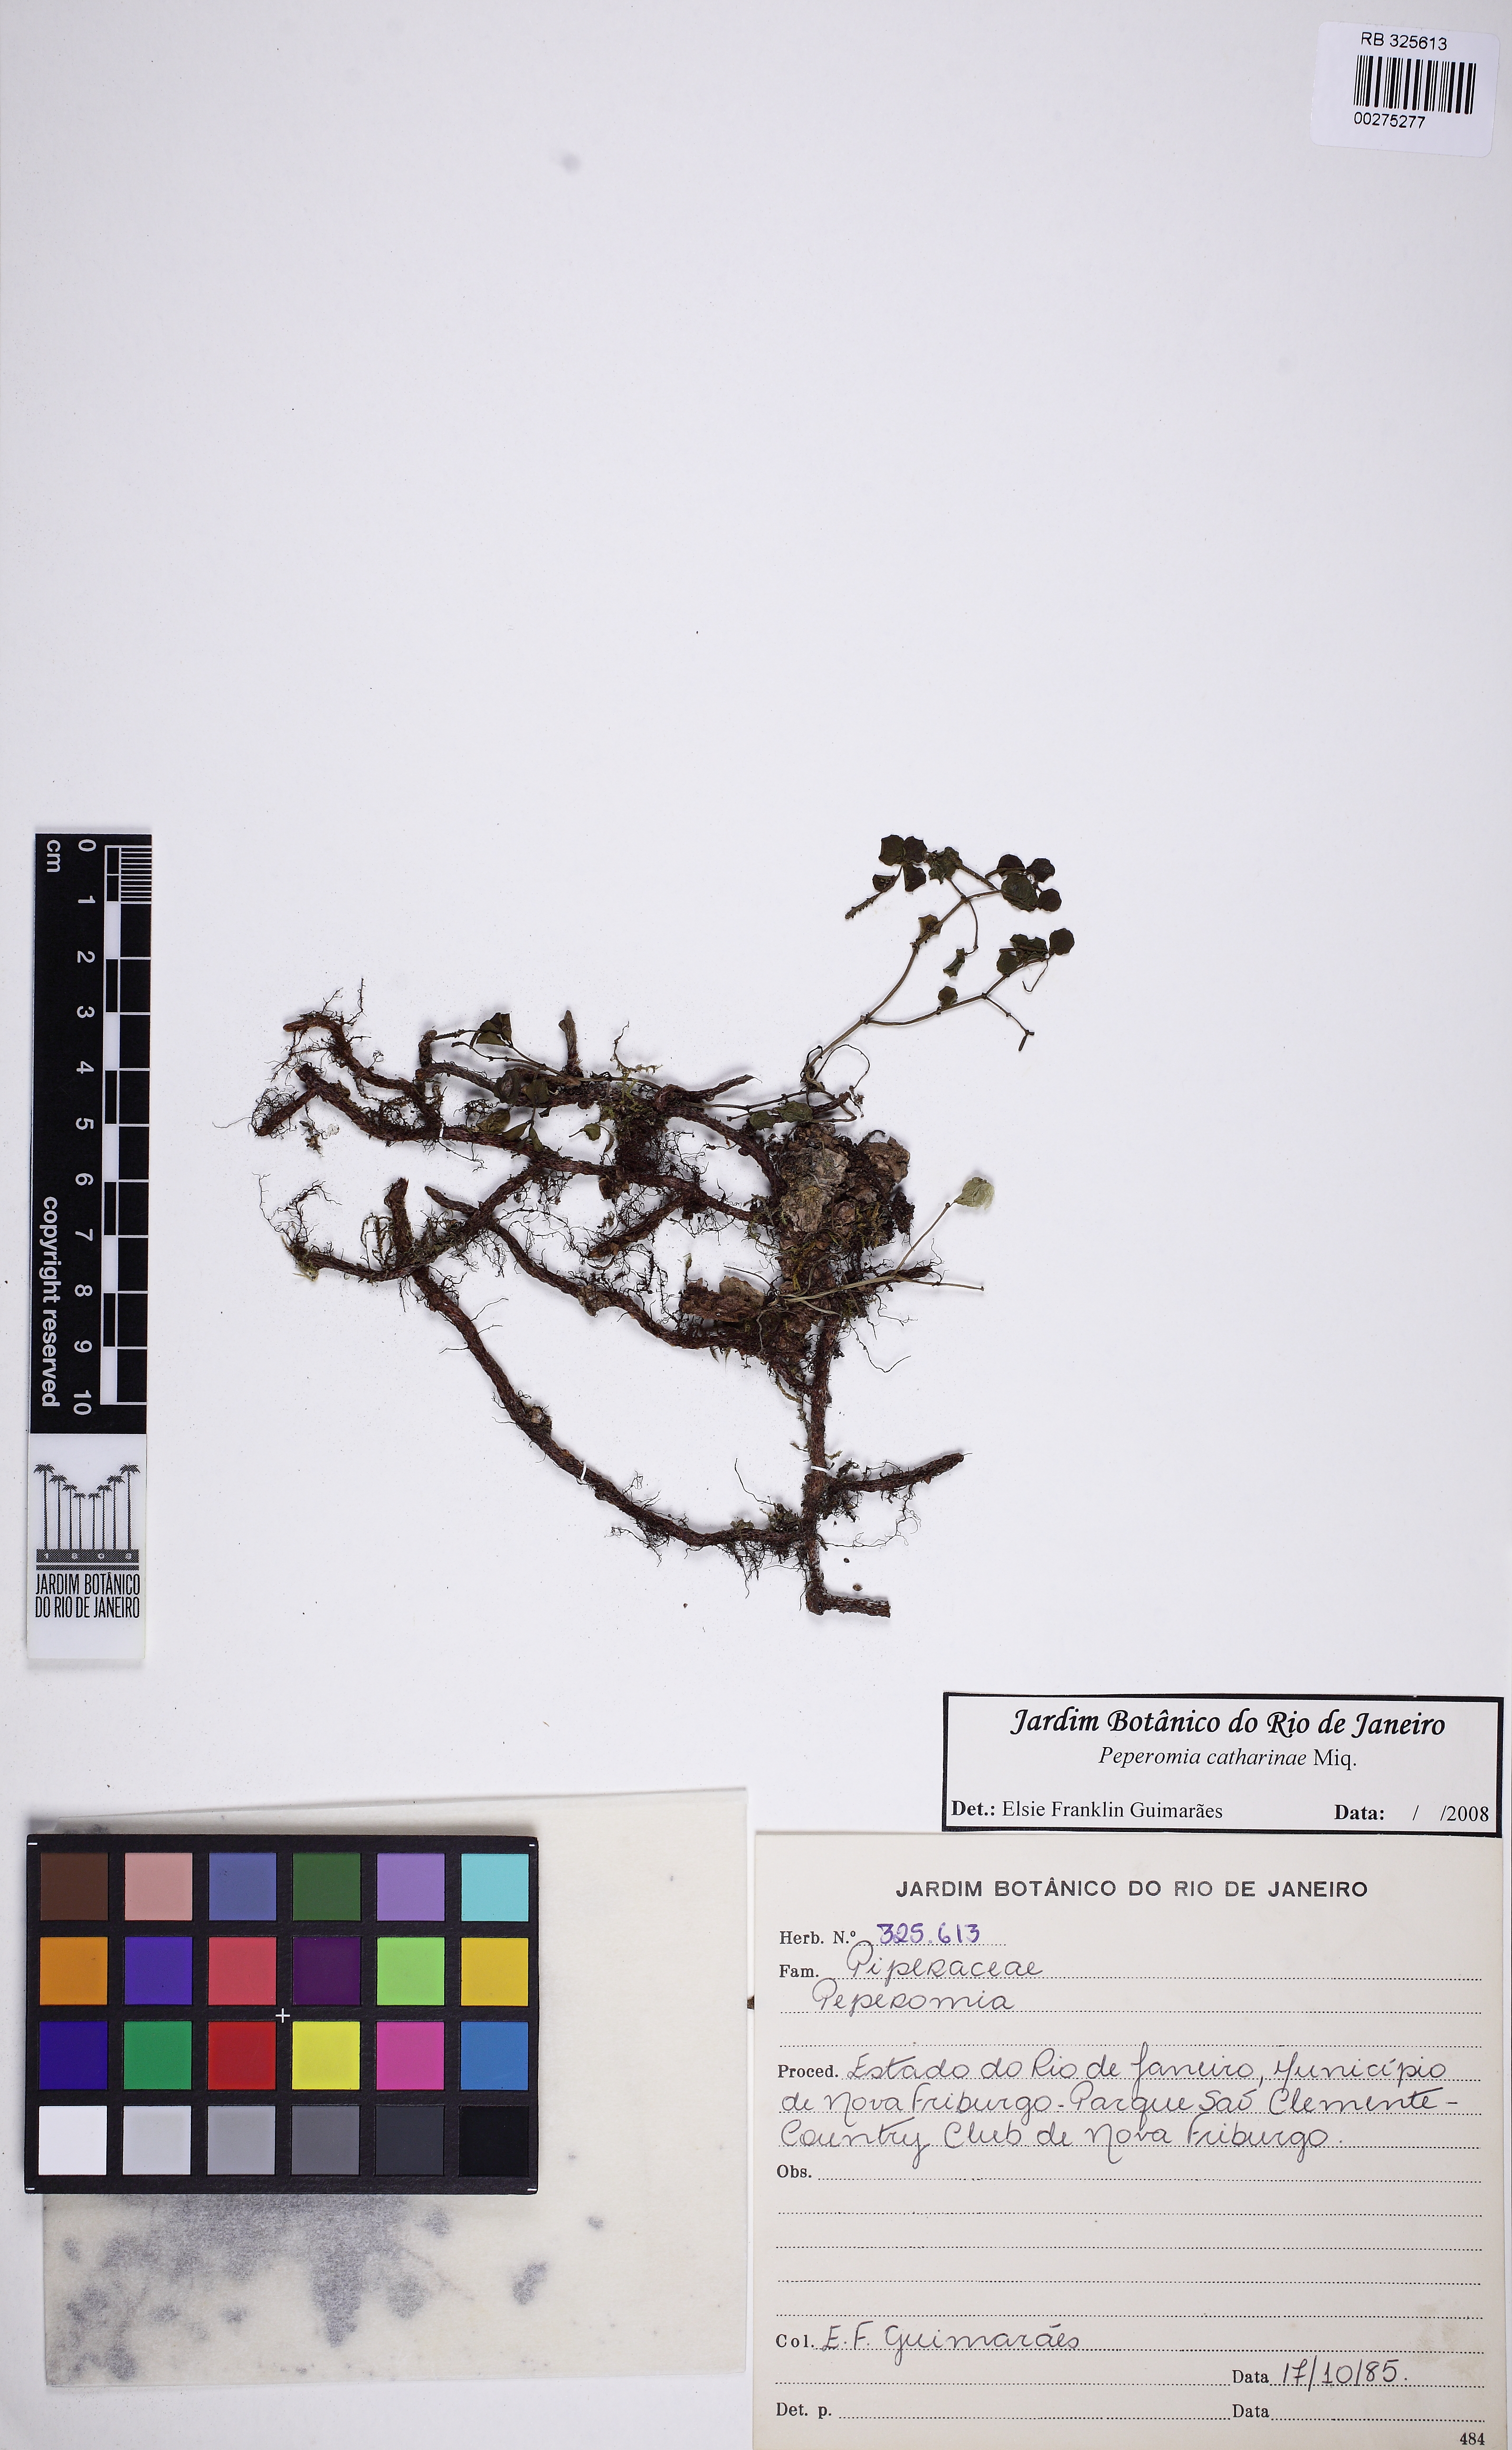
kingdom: Plantae
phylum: Tracheophyta
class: Magnoliopsida
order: Piperales
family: Piperaceae
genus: Peperomia
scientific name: Peperomia catharinae
